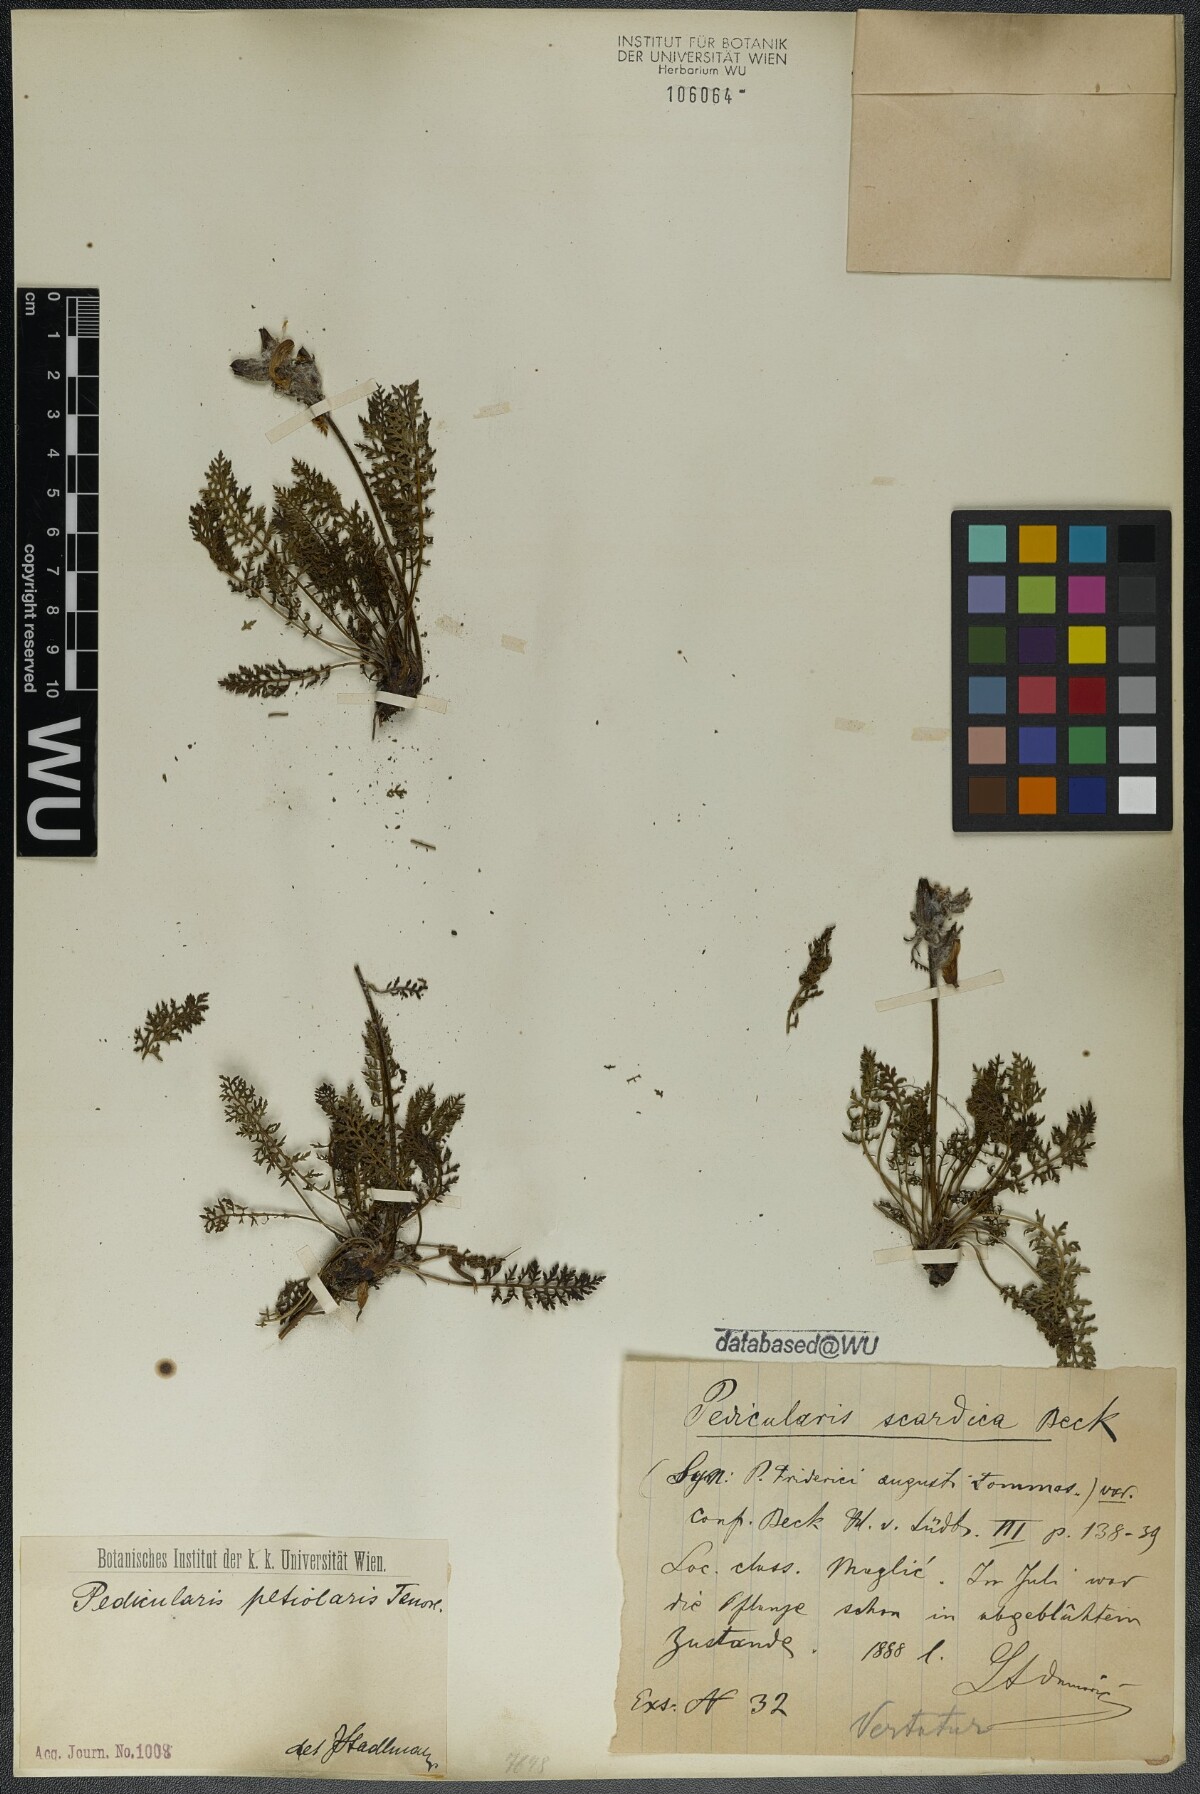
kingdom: Plantae
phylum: Tracheophyta
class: Magnoliopsida
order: Lamiales
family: Orobanchaceae
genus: Pedicularis
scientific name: Pedicularis petiolaris
